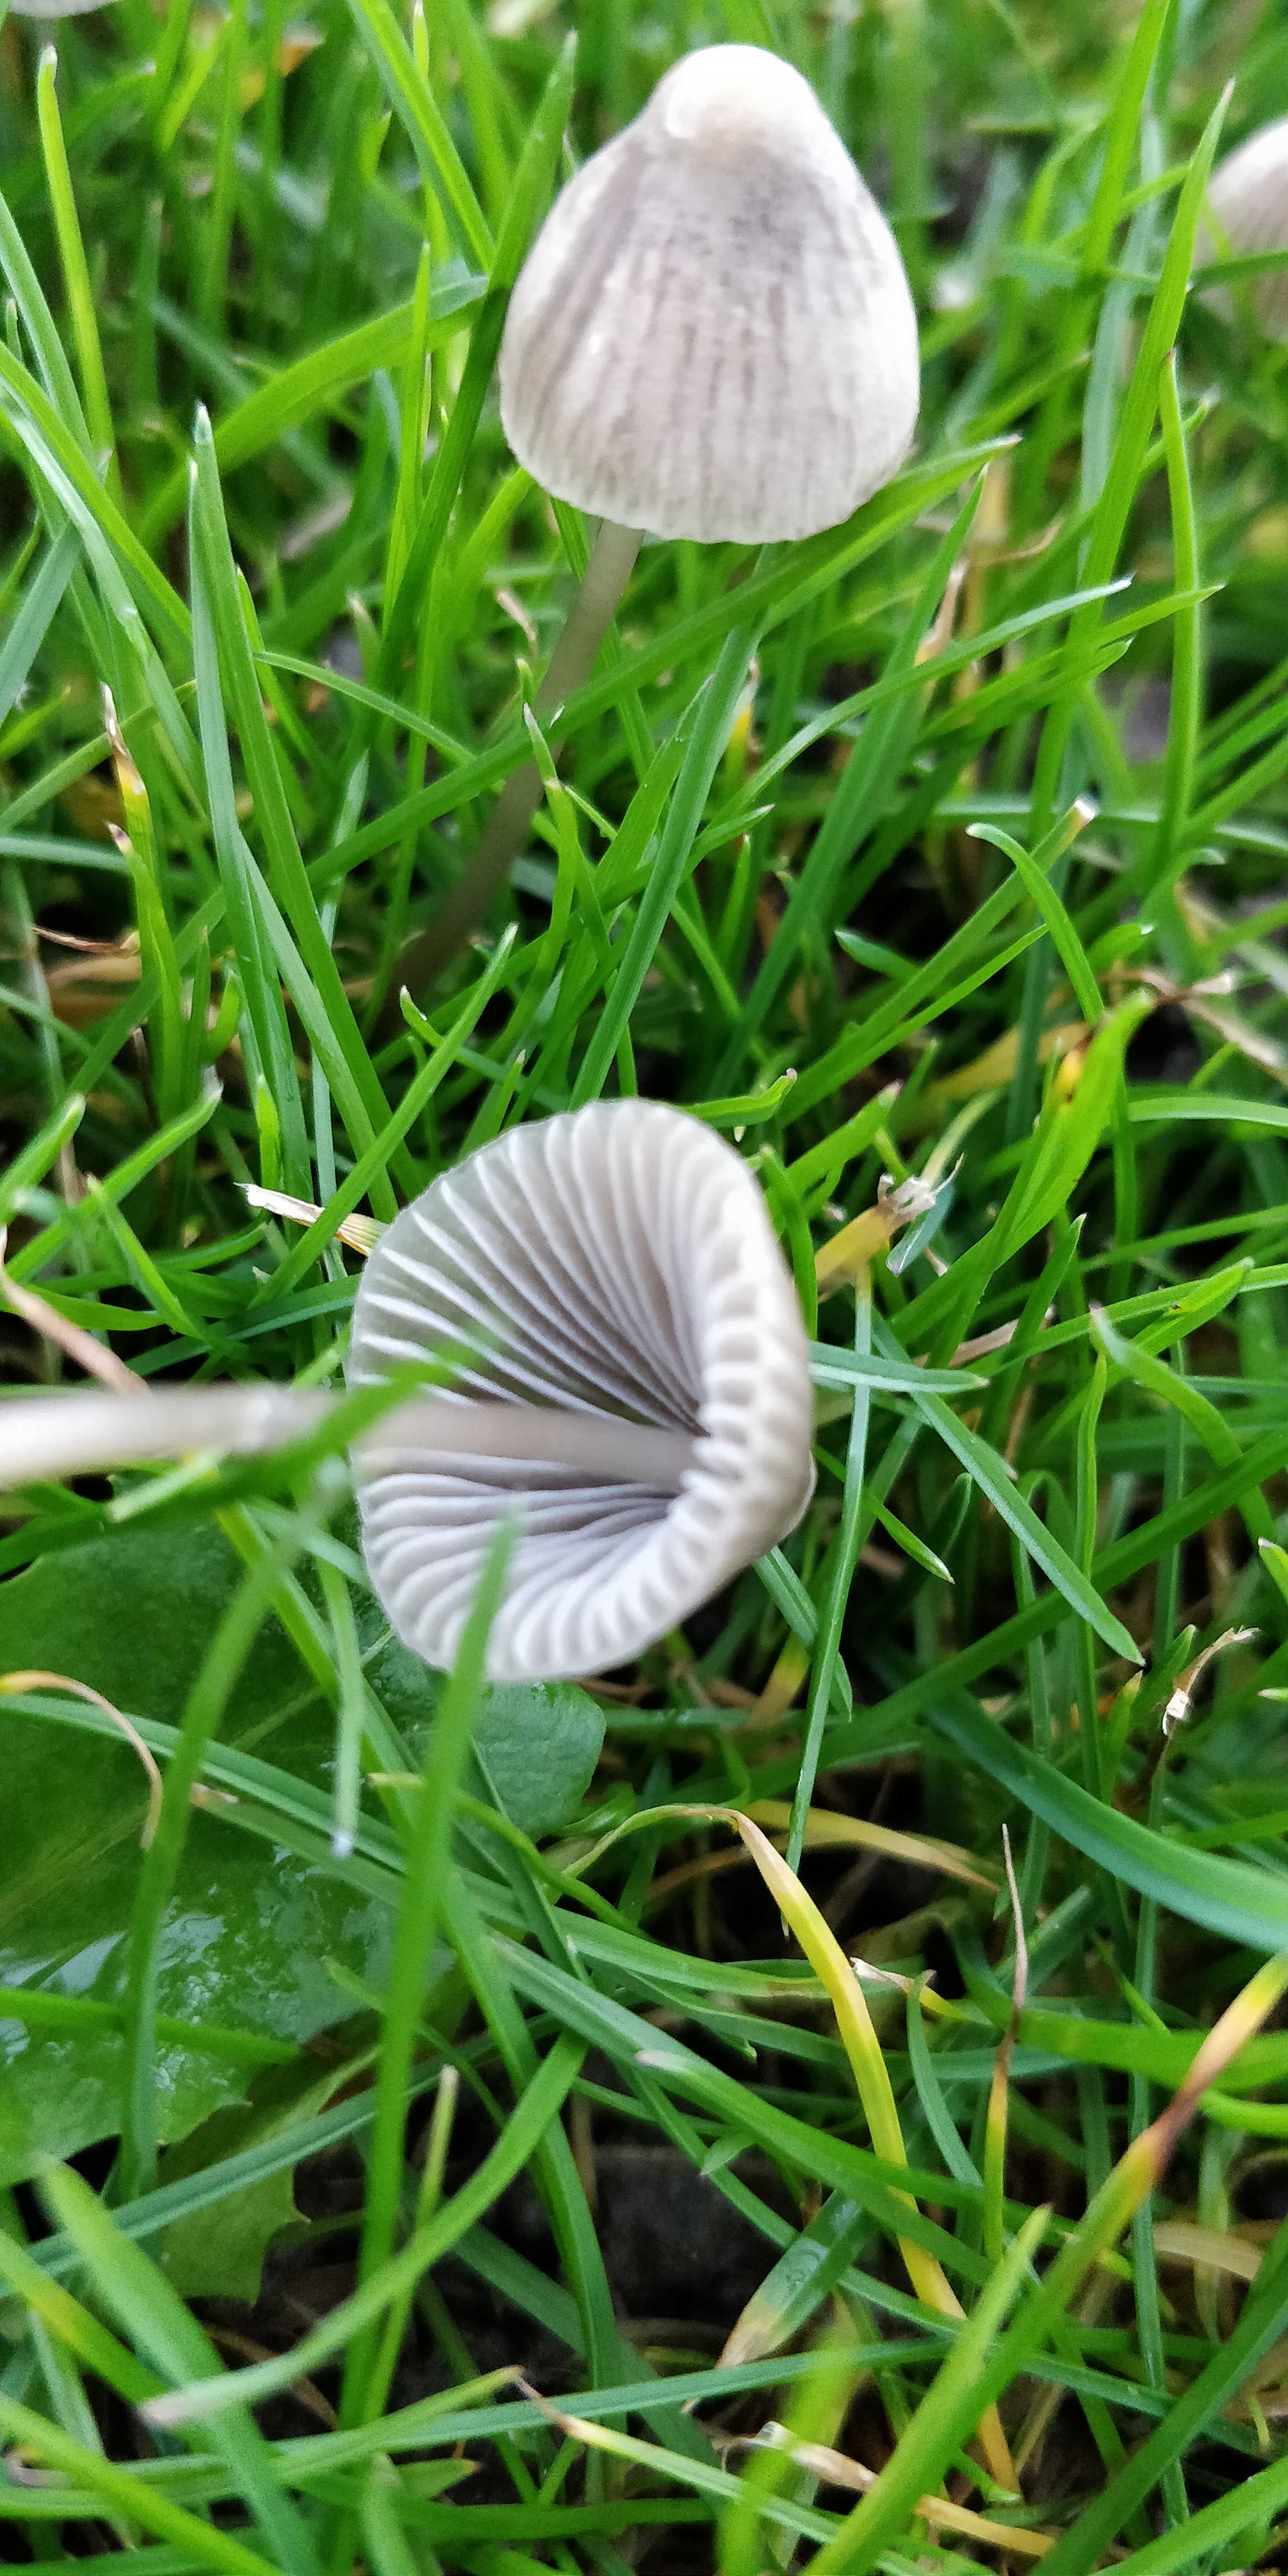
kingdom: Fungi
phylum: Basidiomycota
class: Agaricomycetes
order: Agaricales
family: Mycenaceae
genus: Mycena
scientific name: Mycena aetites
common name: plæne-huesvamp
